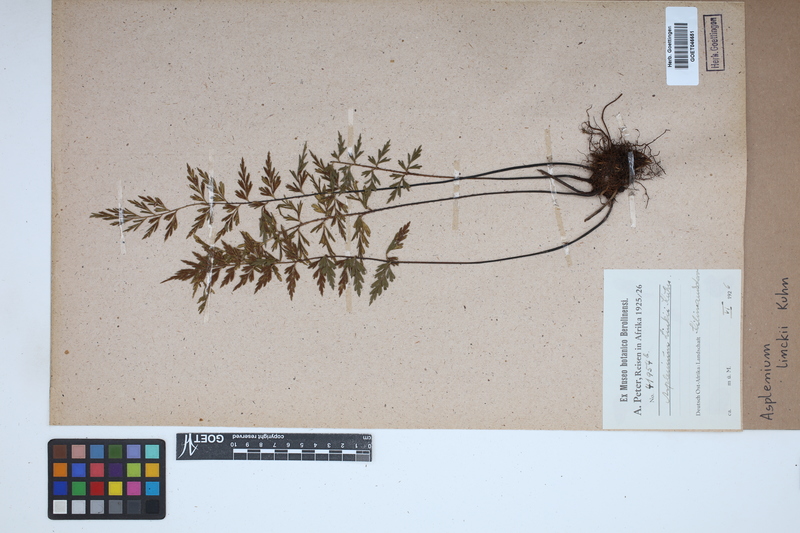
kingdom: Plantae
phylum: Tracheophyta
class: Polypodiopsida
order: Polypodiales
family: Aspleniaceae
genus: Asplenium
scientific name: Asplenium linckii
